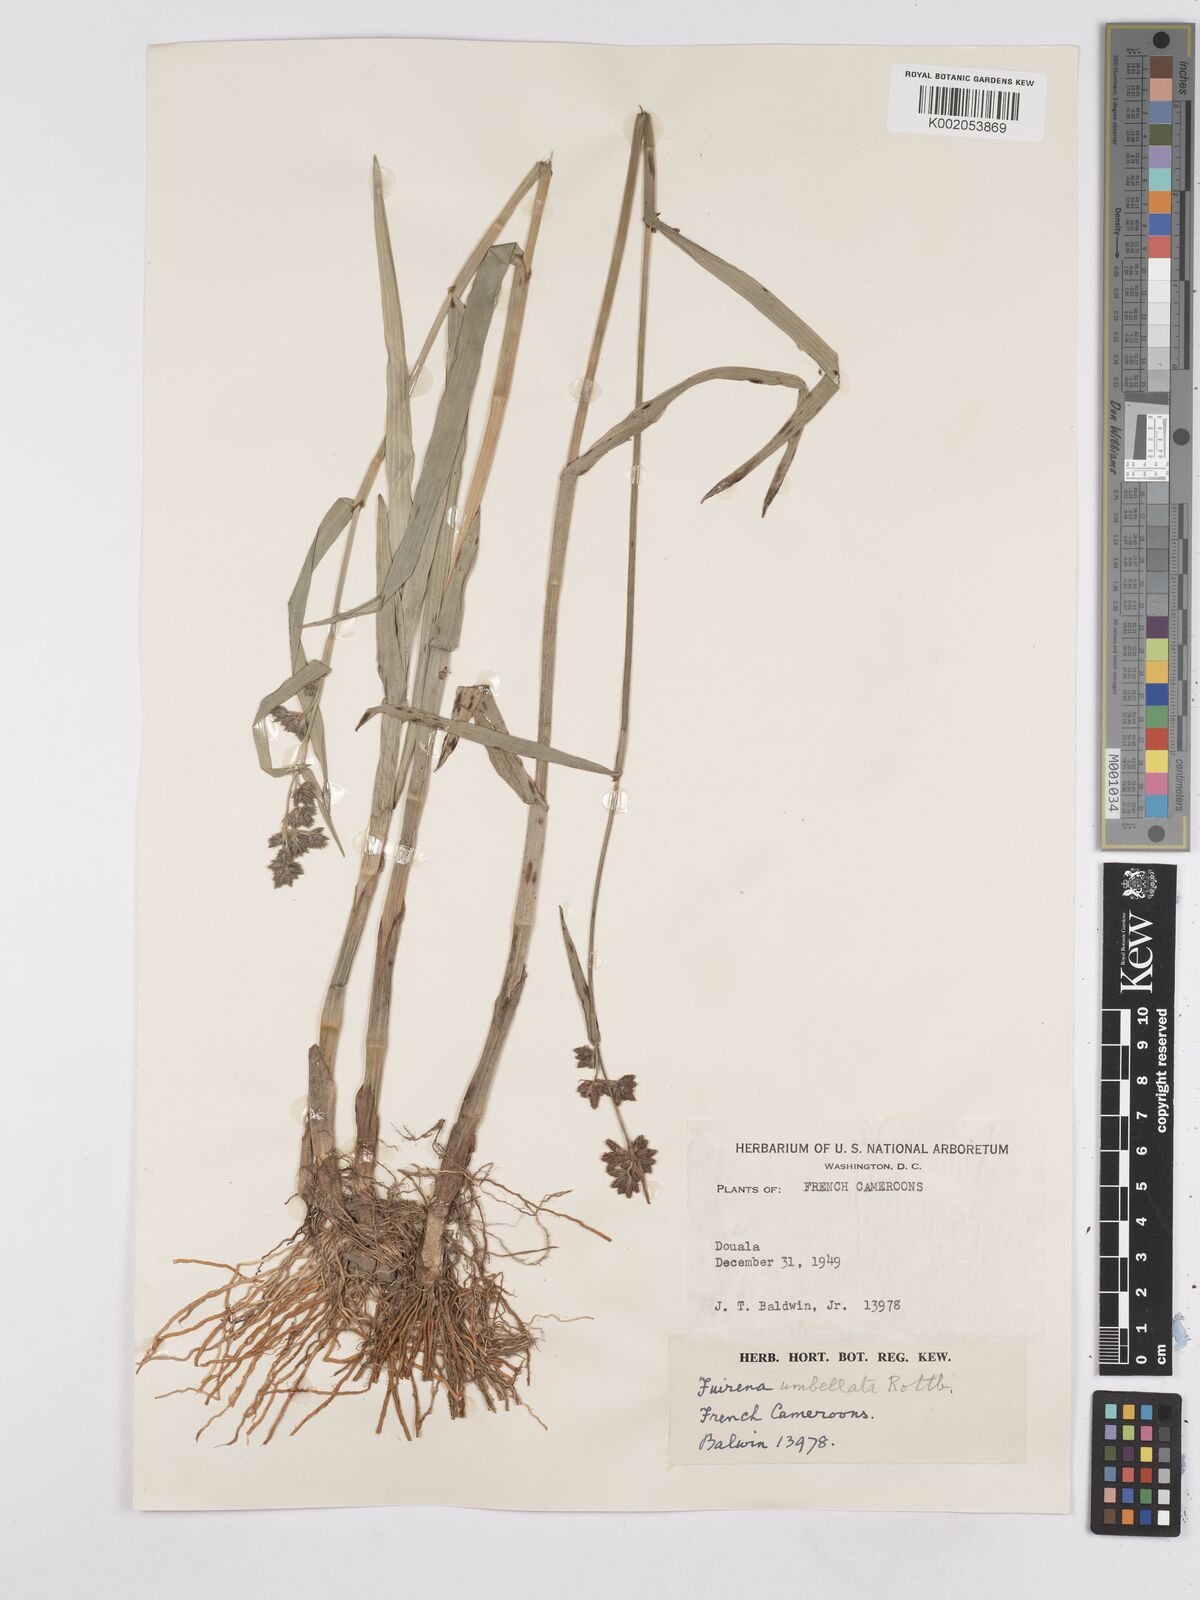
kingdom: Plantae
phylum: Tracheophyta
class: Liliopsida
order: Poales
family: Cyperaceae
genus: Fuirena
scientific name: Fuirena umbellata
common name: Yefen
